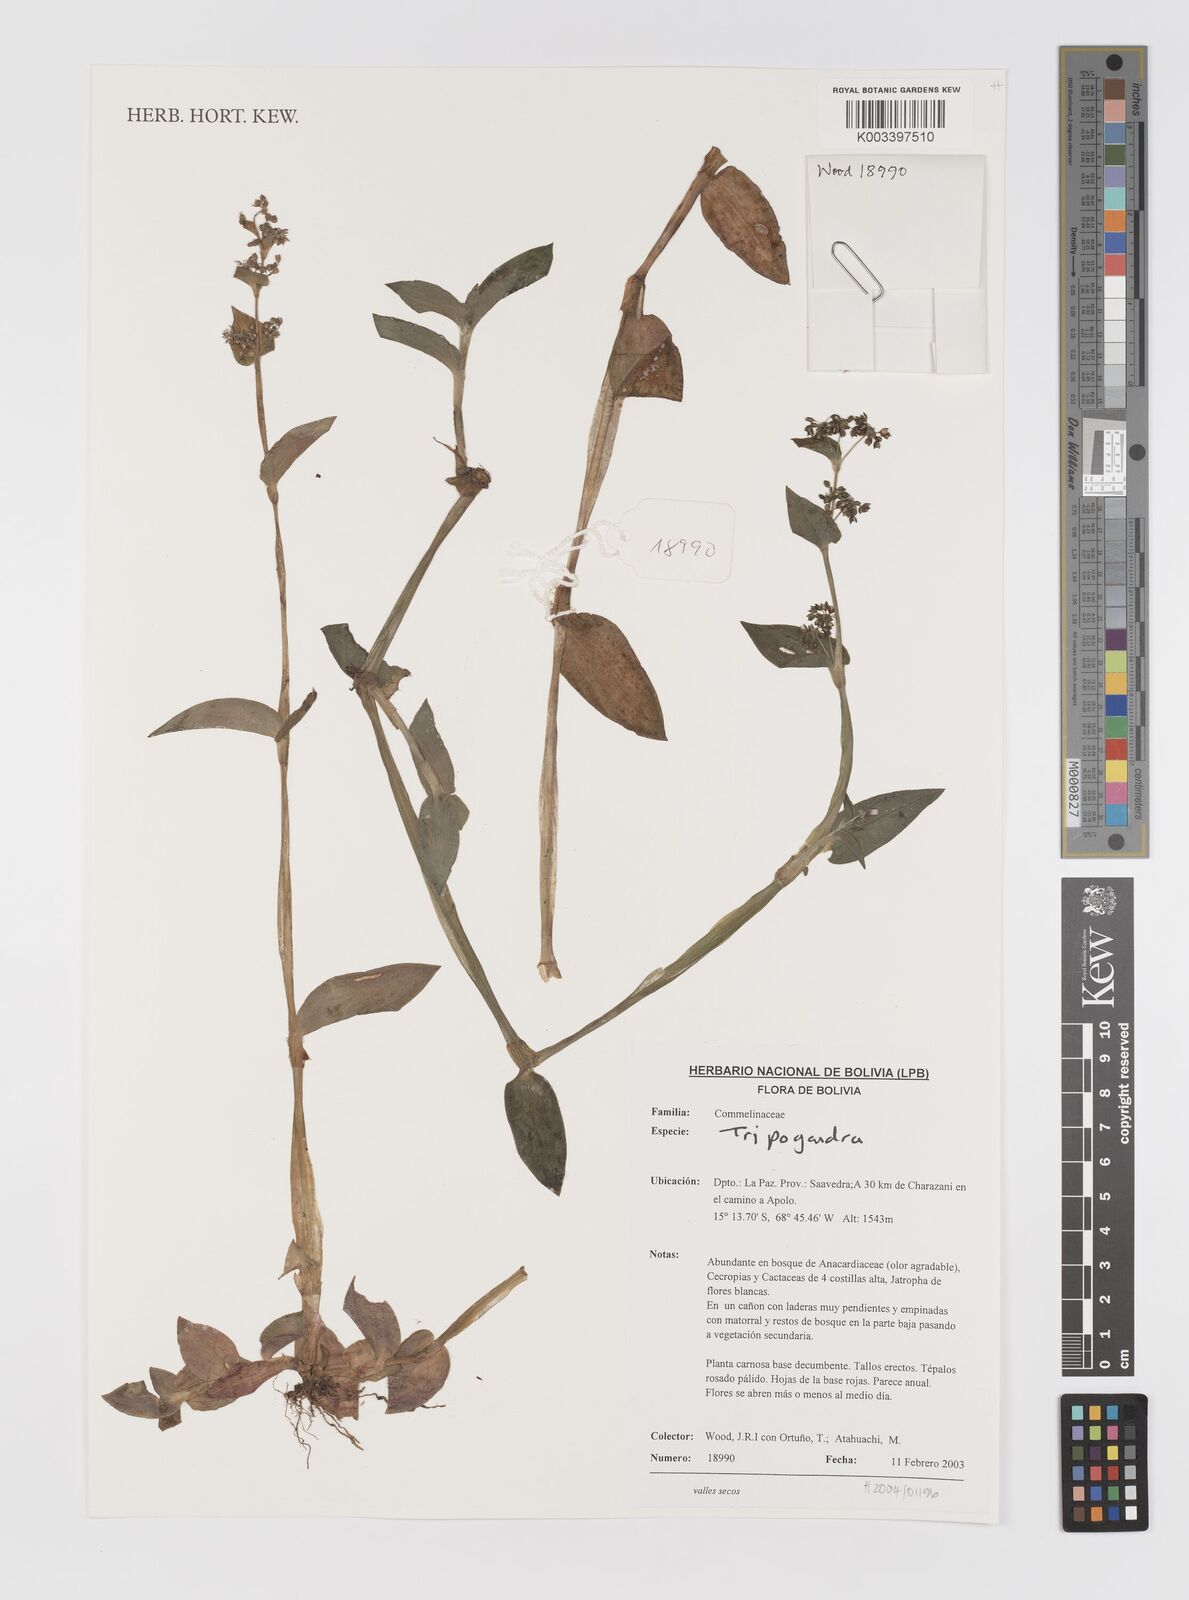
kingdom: Plantae
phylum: Tracheophyta
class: Liliopsida
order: Commelinales
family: Commelinaceae
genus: Callisia
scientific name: Callisia
